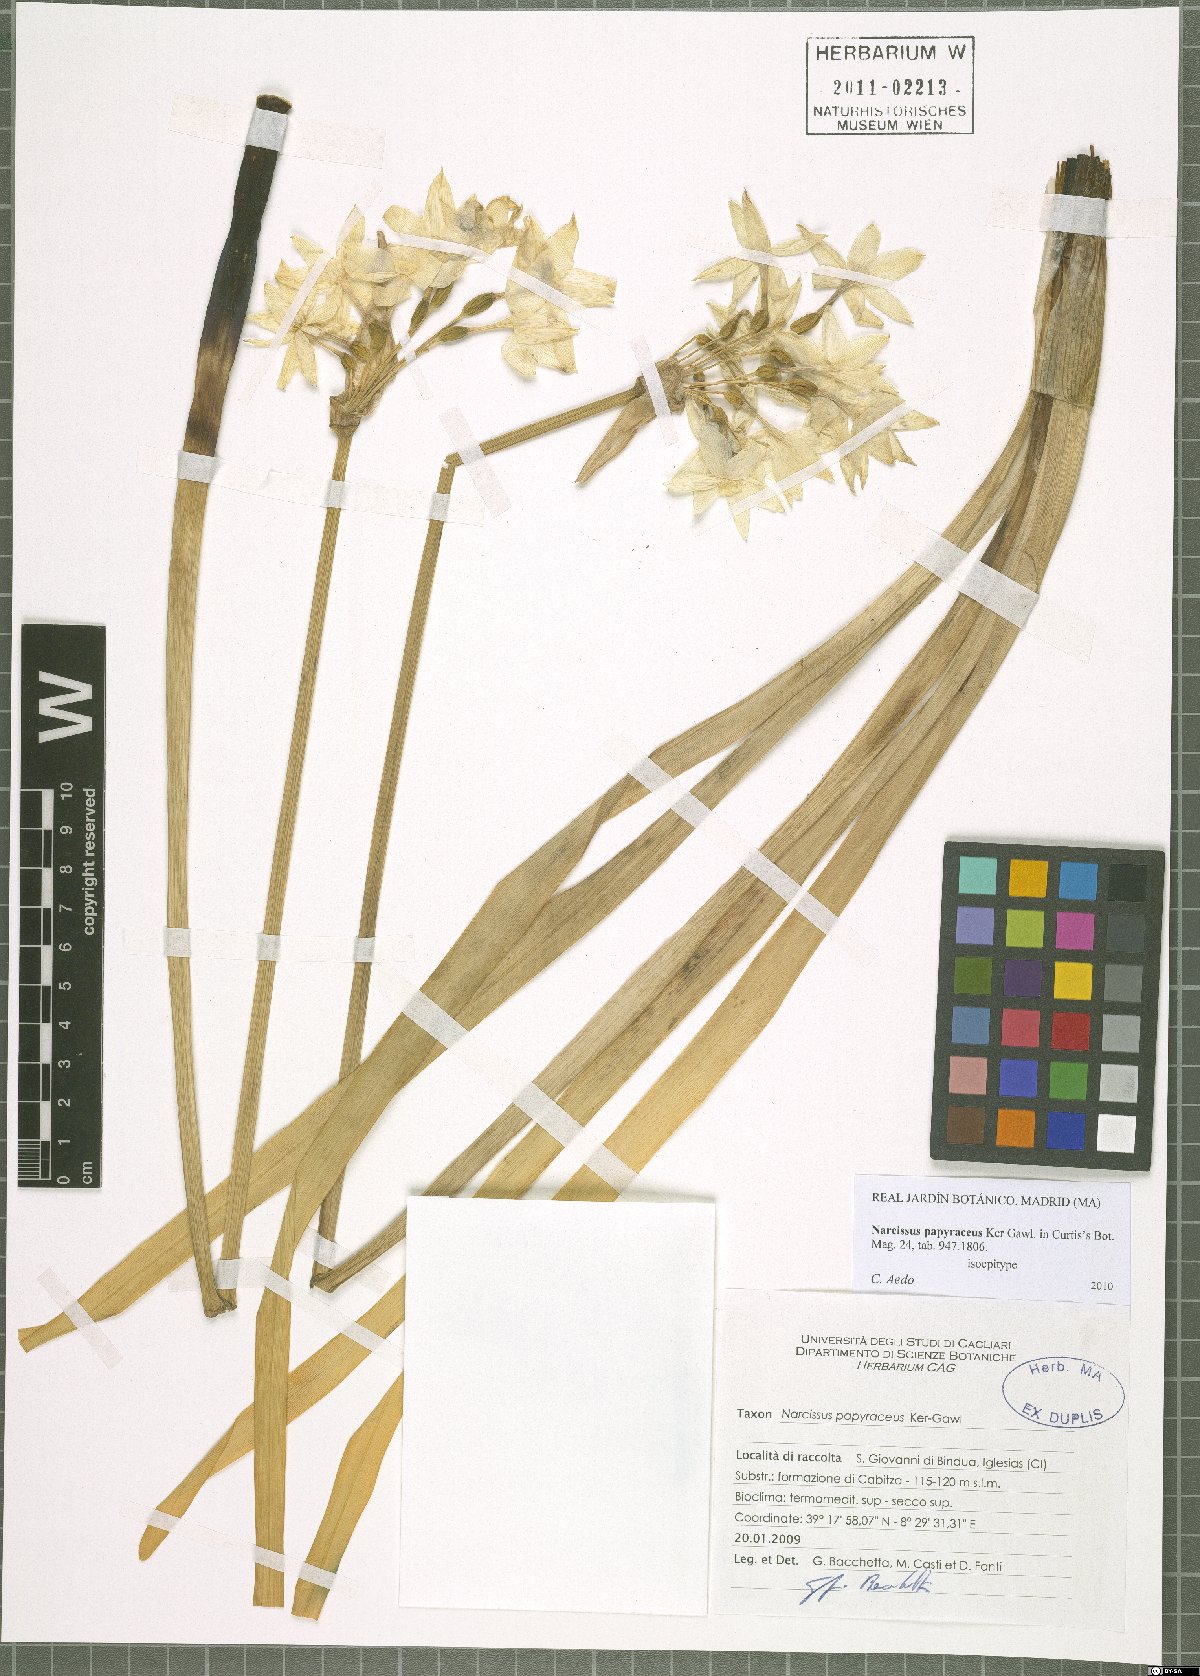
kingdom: Plantae
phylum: Tracheophyta
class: Liliopsida
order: Asparagales
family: Amaryllidaceae
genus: Narcissus
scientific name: Narcissus papyraceus
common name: Paper-white daffodil
